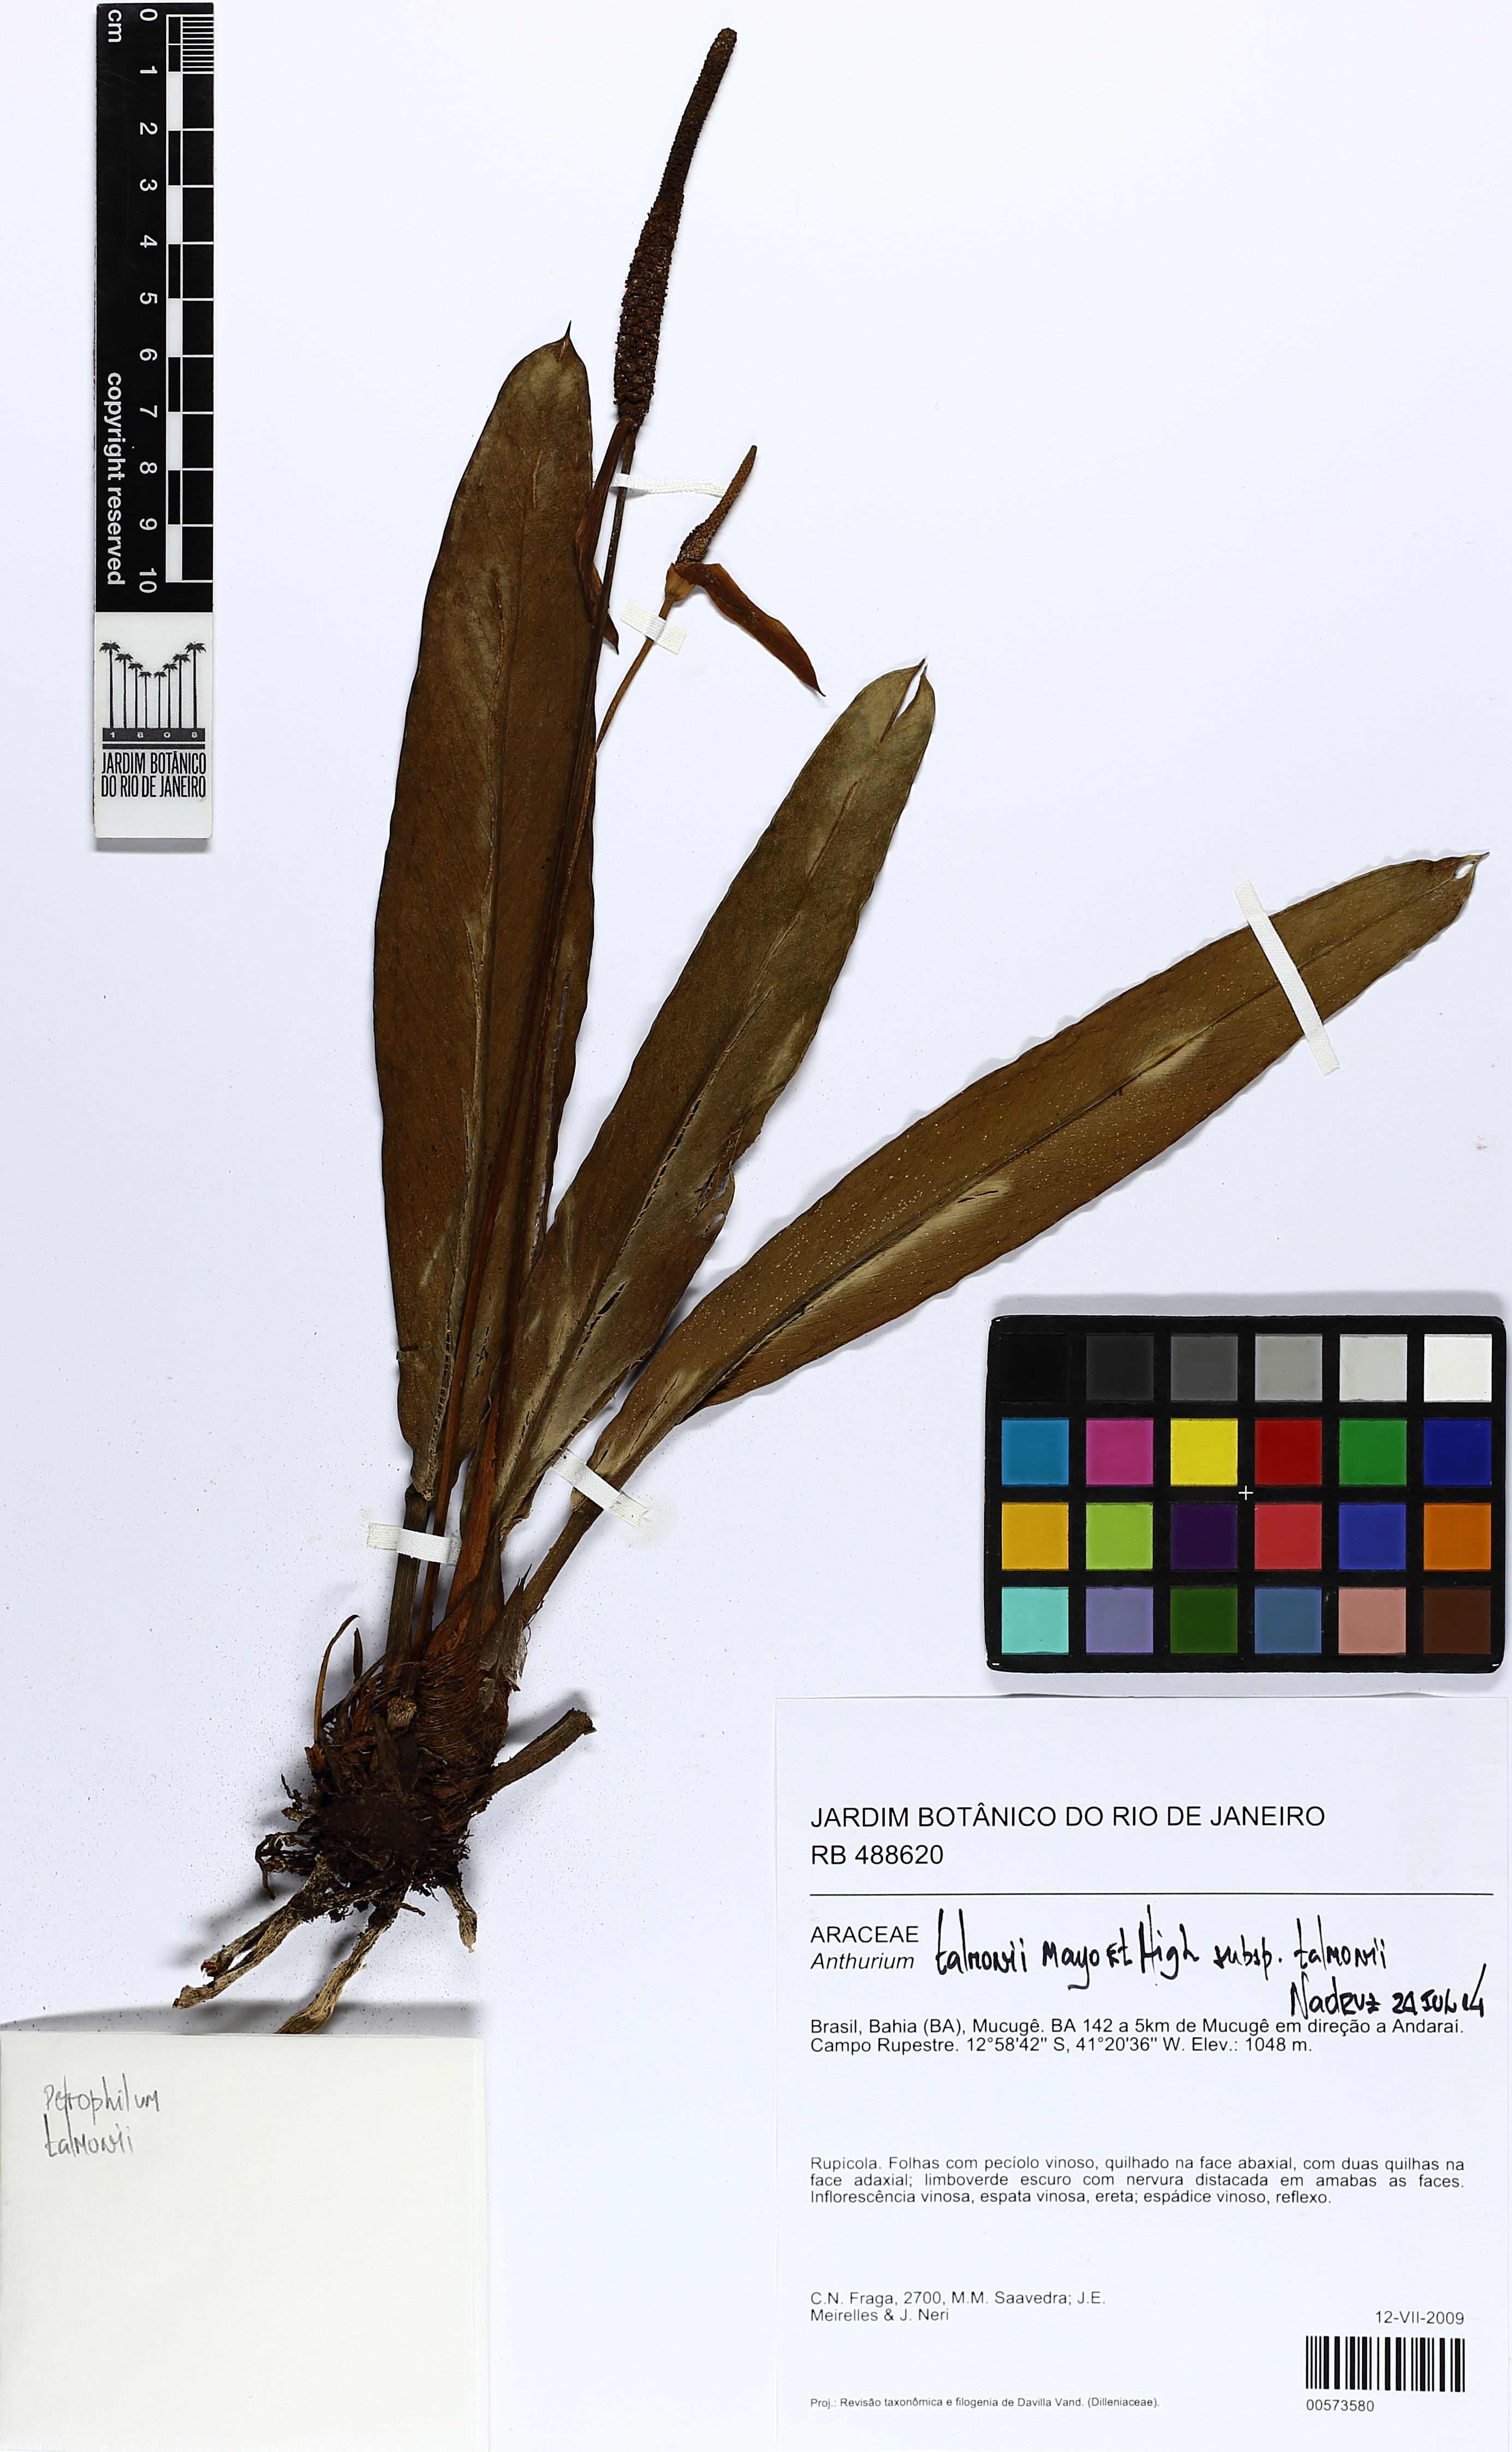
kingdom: Plantae
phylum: Tracheophyta
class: Liliopsida
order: Alismatales
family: Araceae
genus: Anthurium
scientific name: Anthurium talmonii
